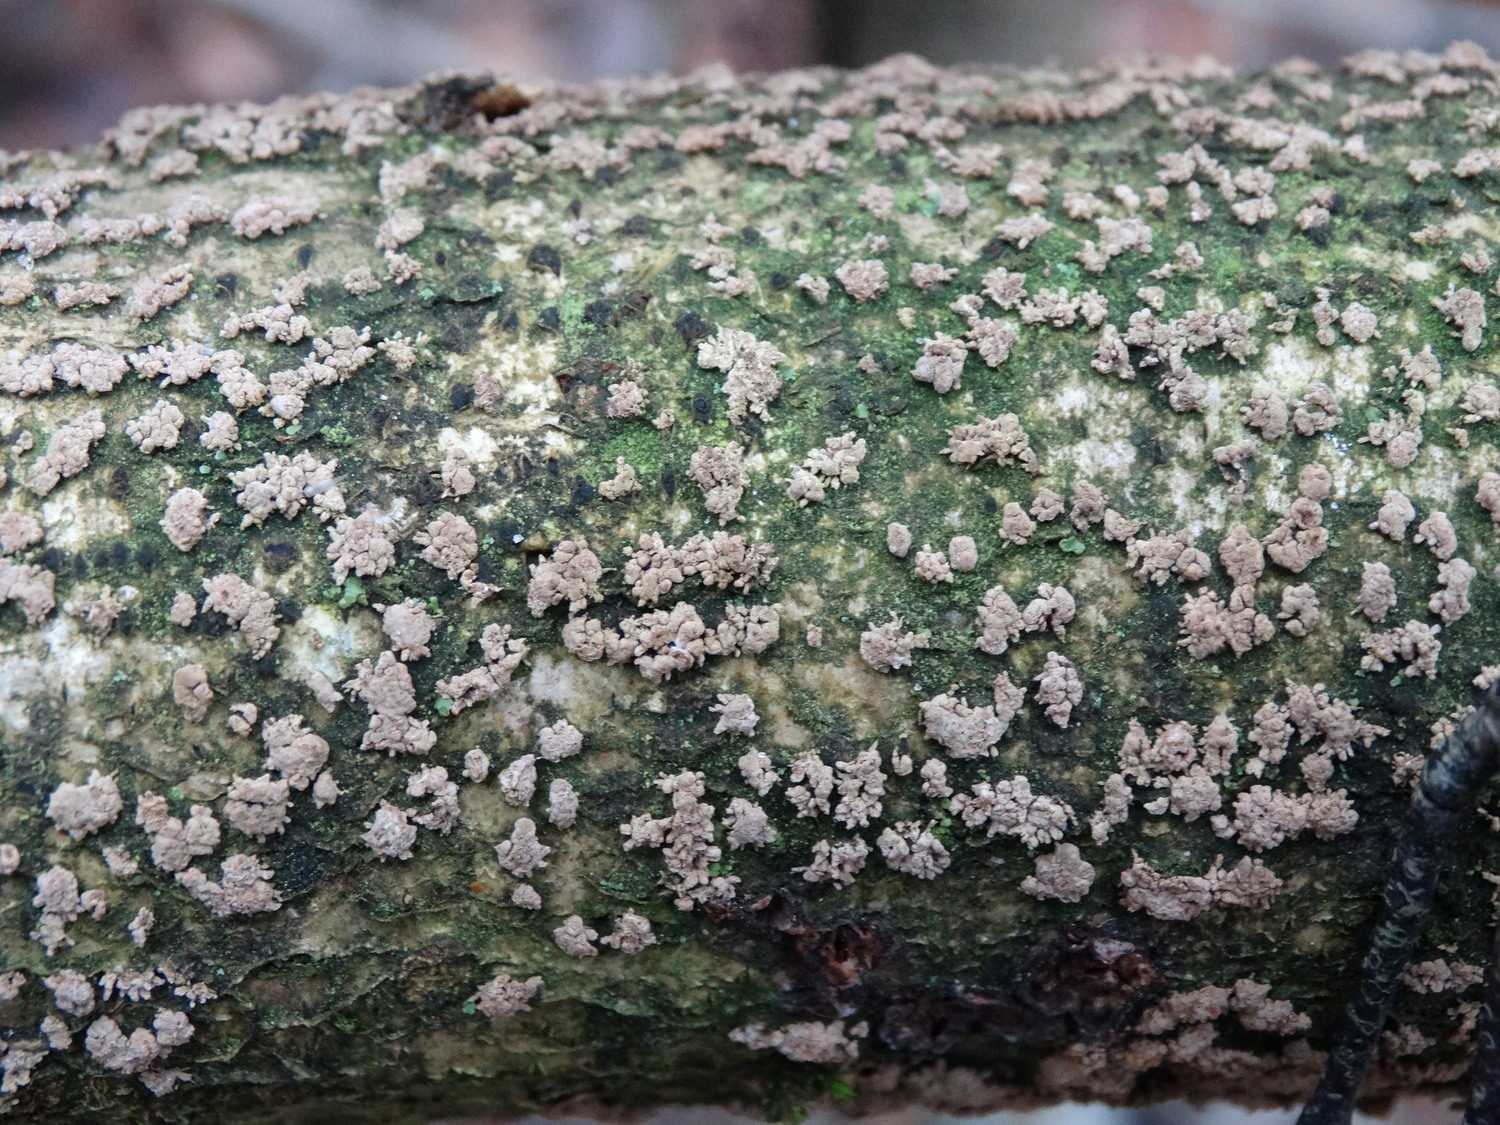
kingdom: Fungi
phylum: Ascomycota
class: Sordariomycetes
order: Xylariales
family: Hypoxylaceae
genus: Hypoxylon
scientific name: Hypoxylon howeanum
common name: halvkugleformet kulbær
